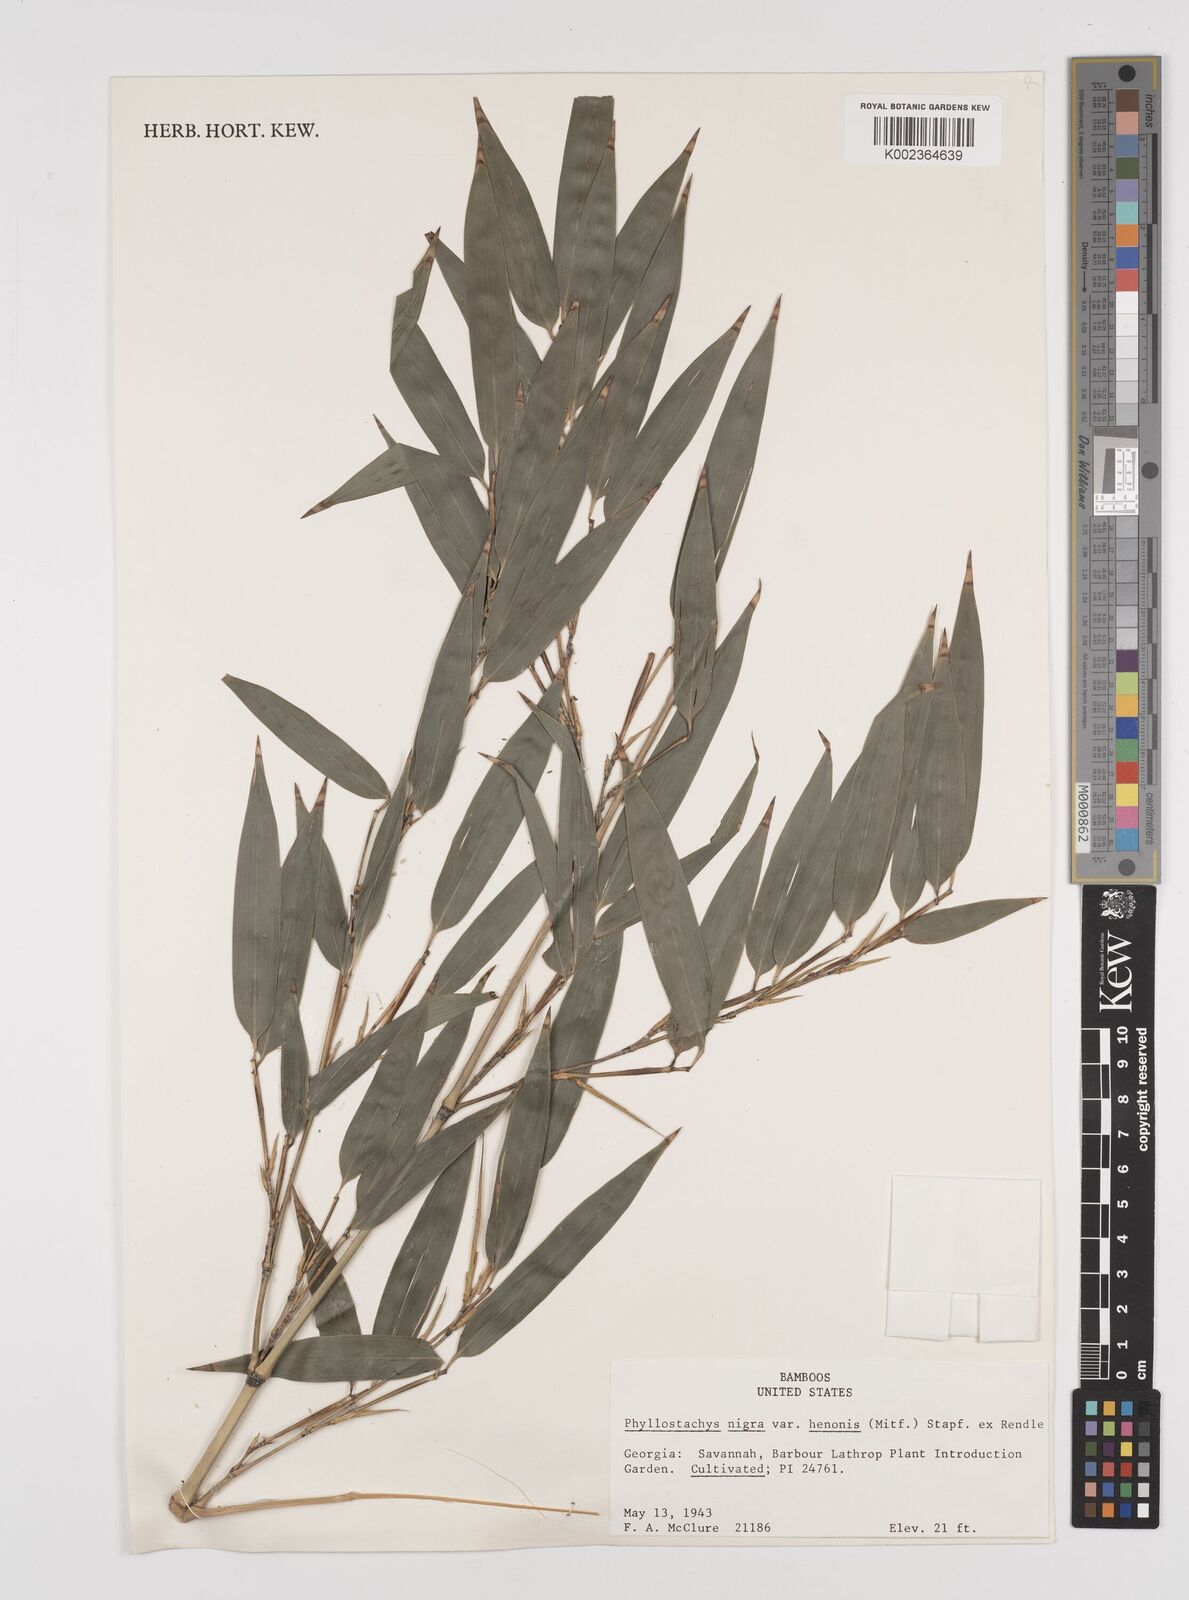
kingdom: Plantae
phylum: Tracheophyta
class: Liliopsida
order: Poales
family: Poaceae
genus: Phyllostachys
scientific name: Phyllostachys nigra
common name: Black bamboo
